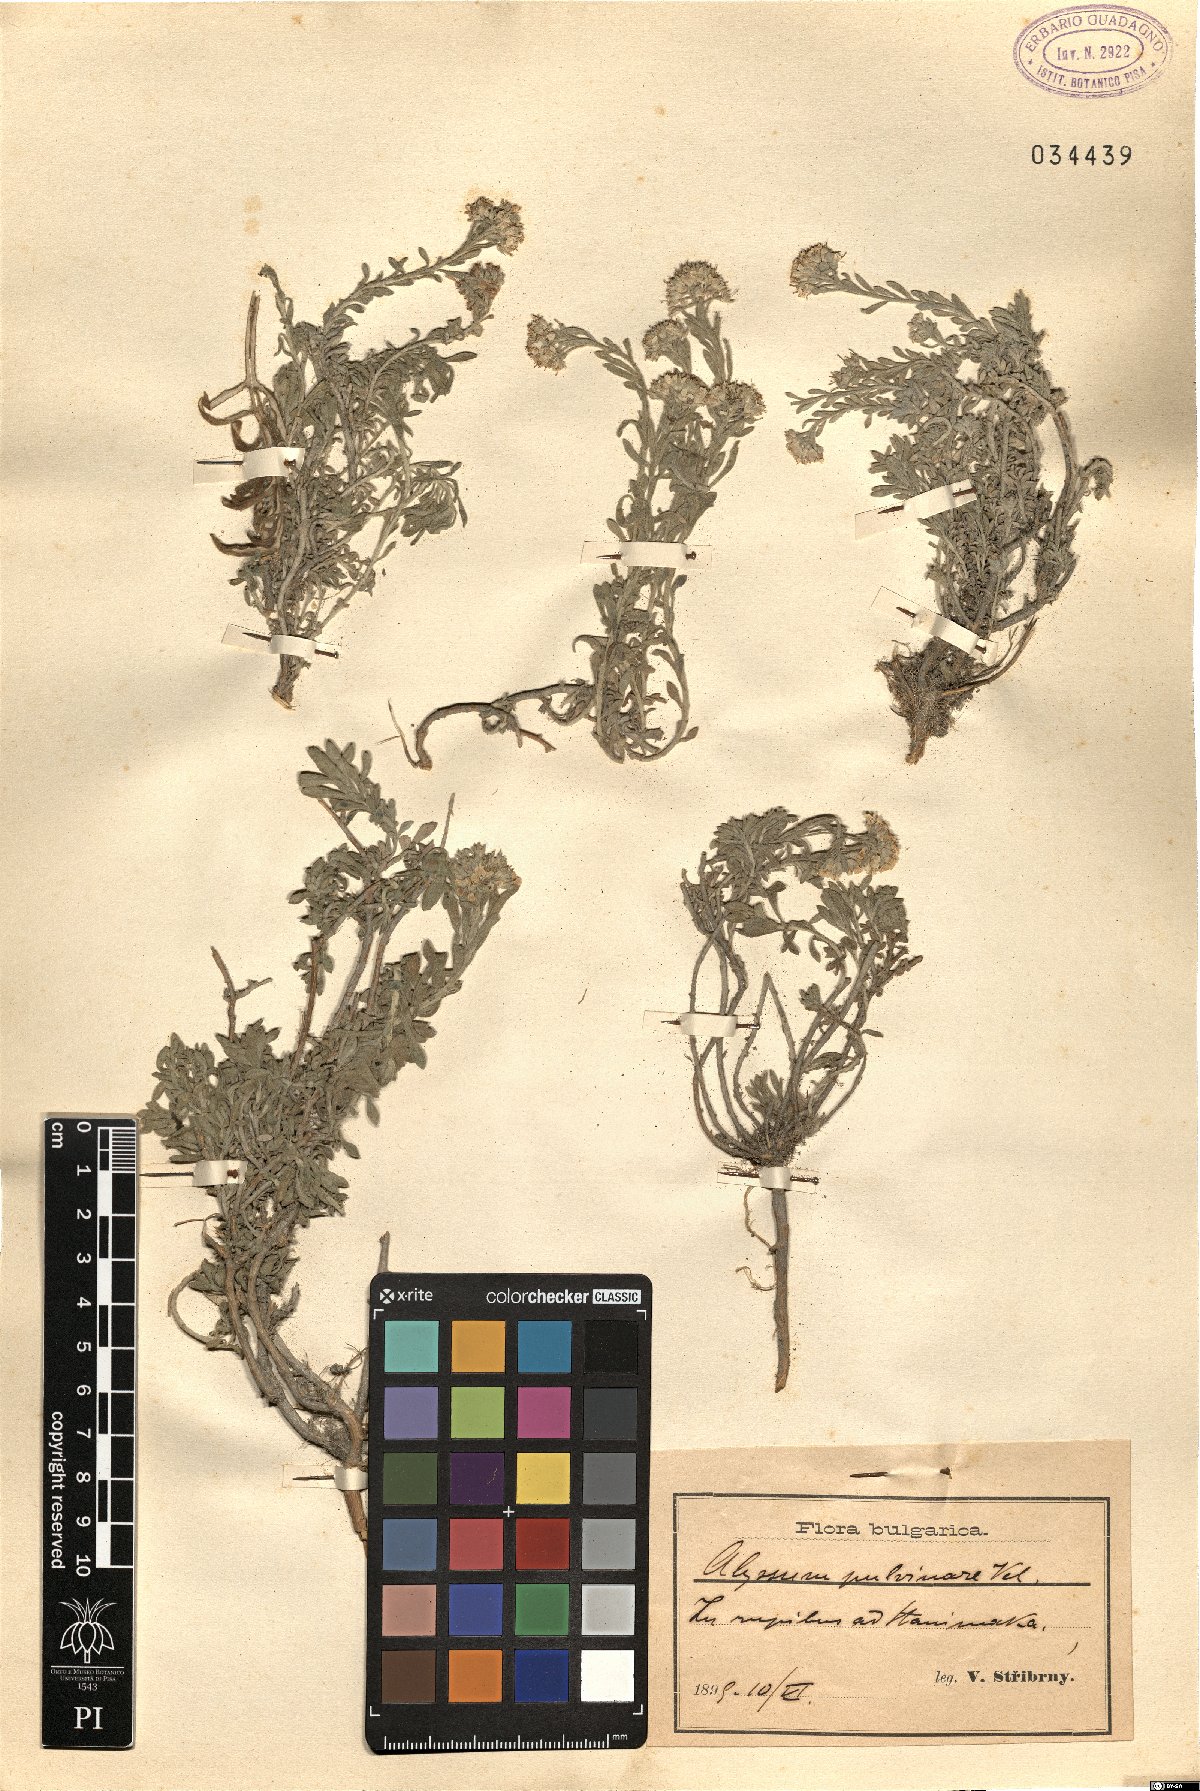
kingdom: Plantae
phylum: Tracheophyta
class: Magnoliopsida
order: Brassicales
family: Brassicaceae
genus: Alyssum
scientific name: Alyssum pulvinare
